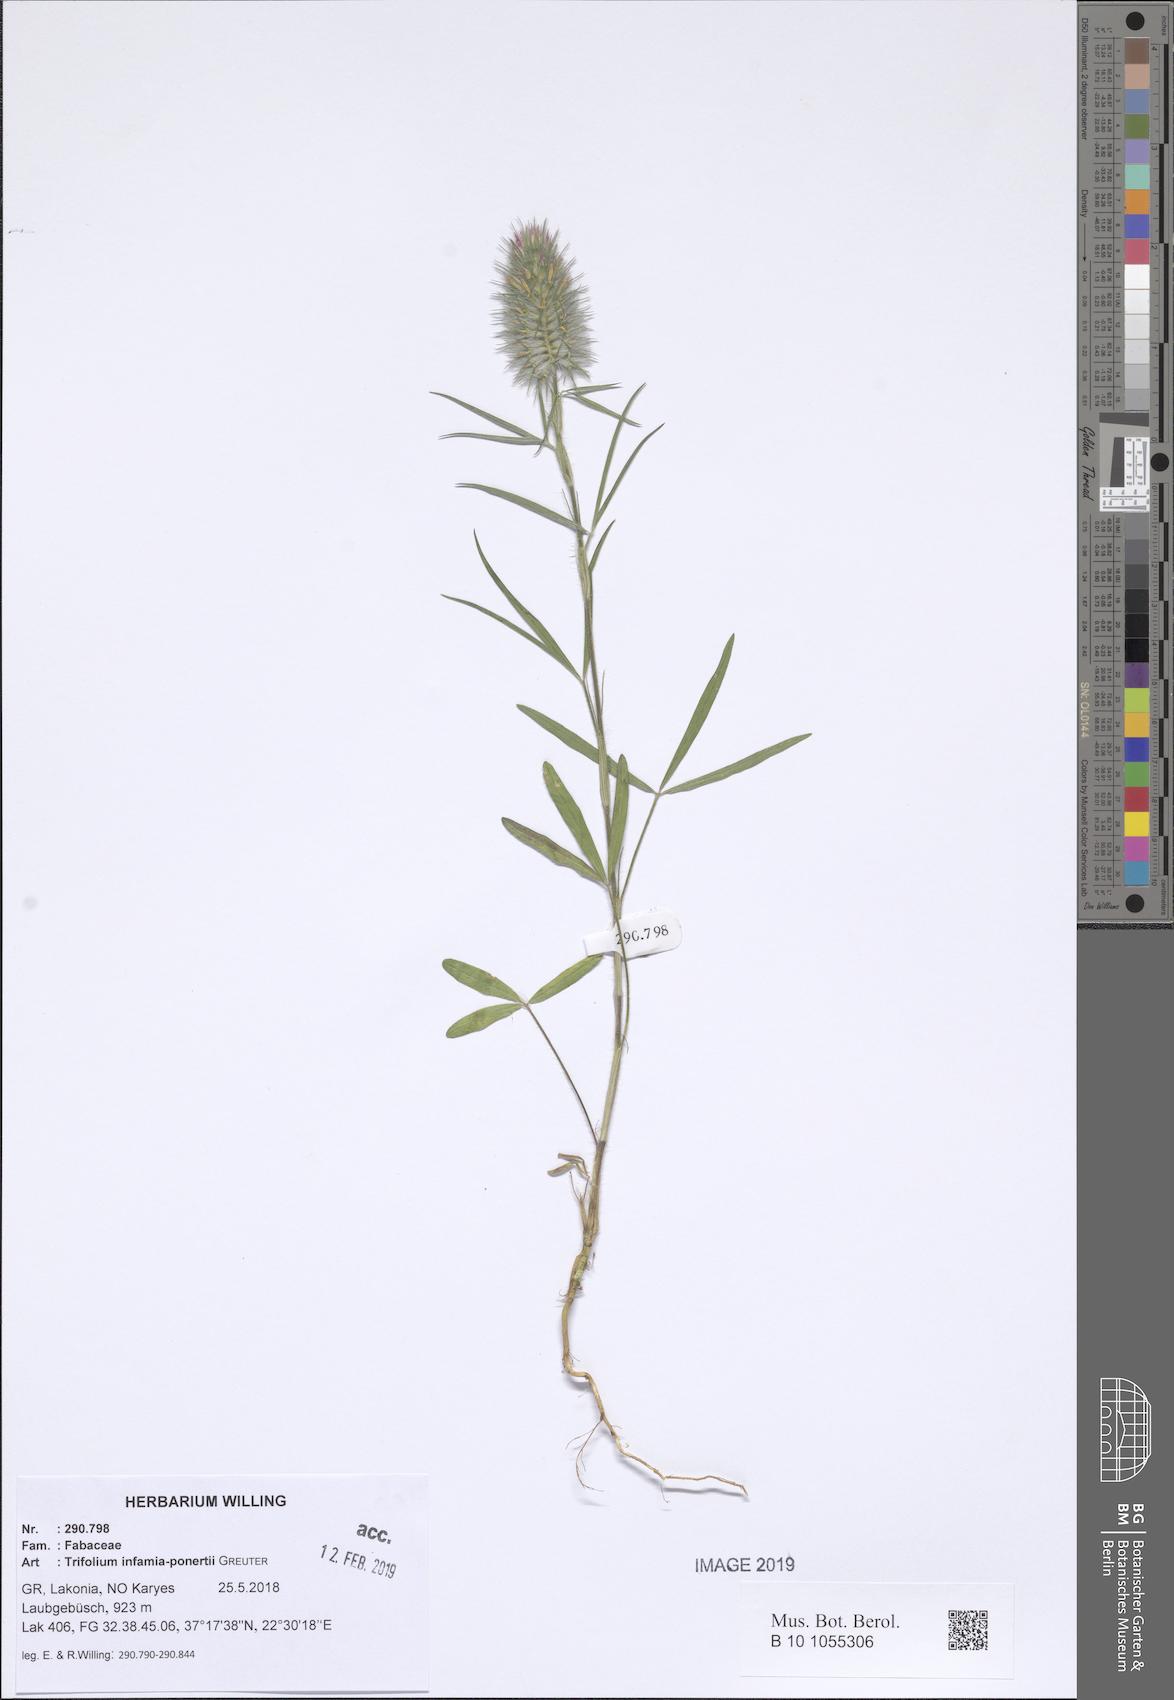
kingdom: Plantae
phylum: Tracheophyta
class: Magnoliopsida
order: Fabales
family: Fabaceae
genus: Trifolium
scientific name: Trifolium infamia-ponertii
